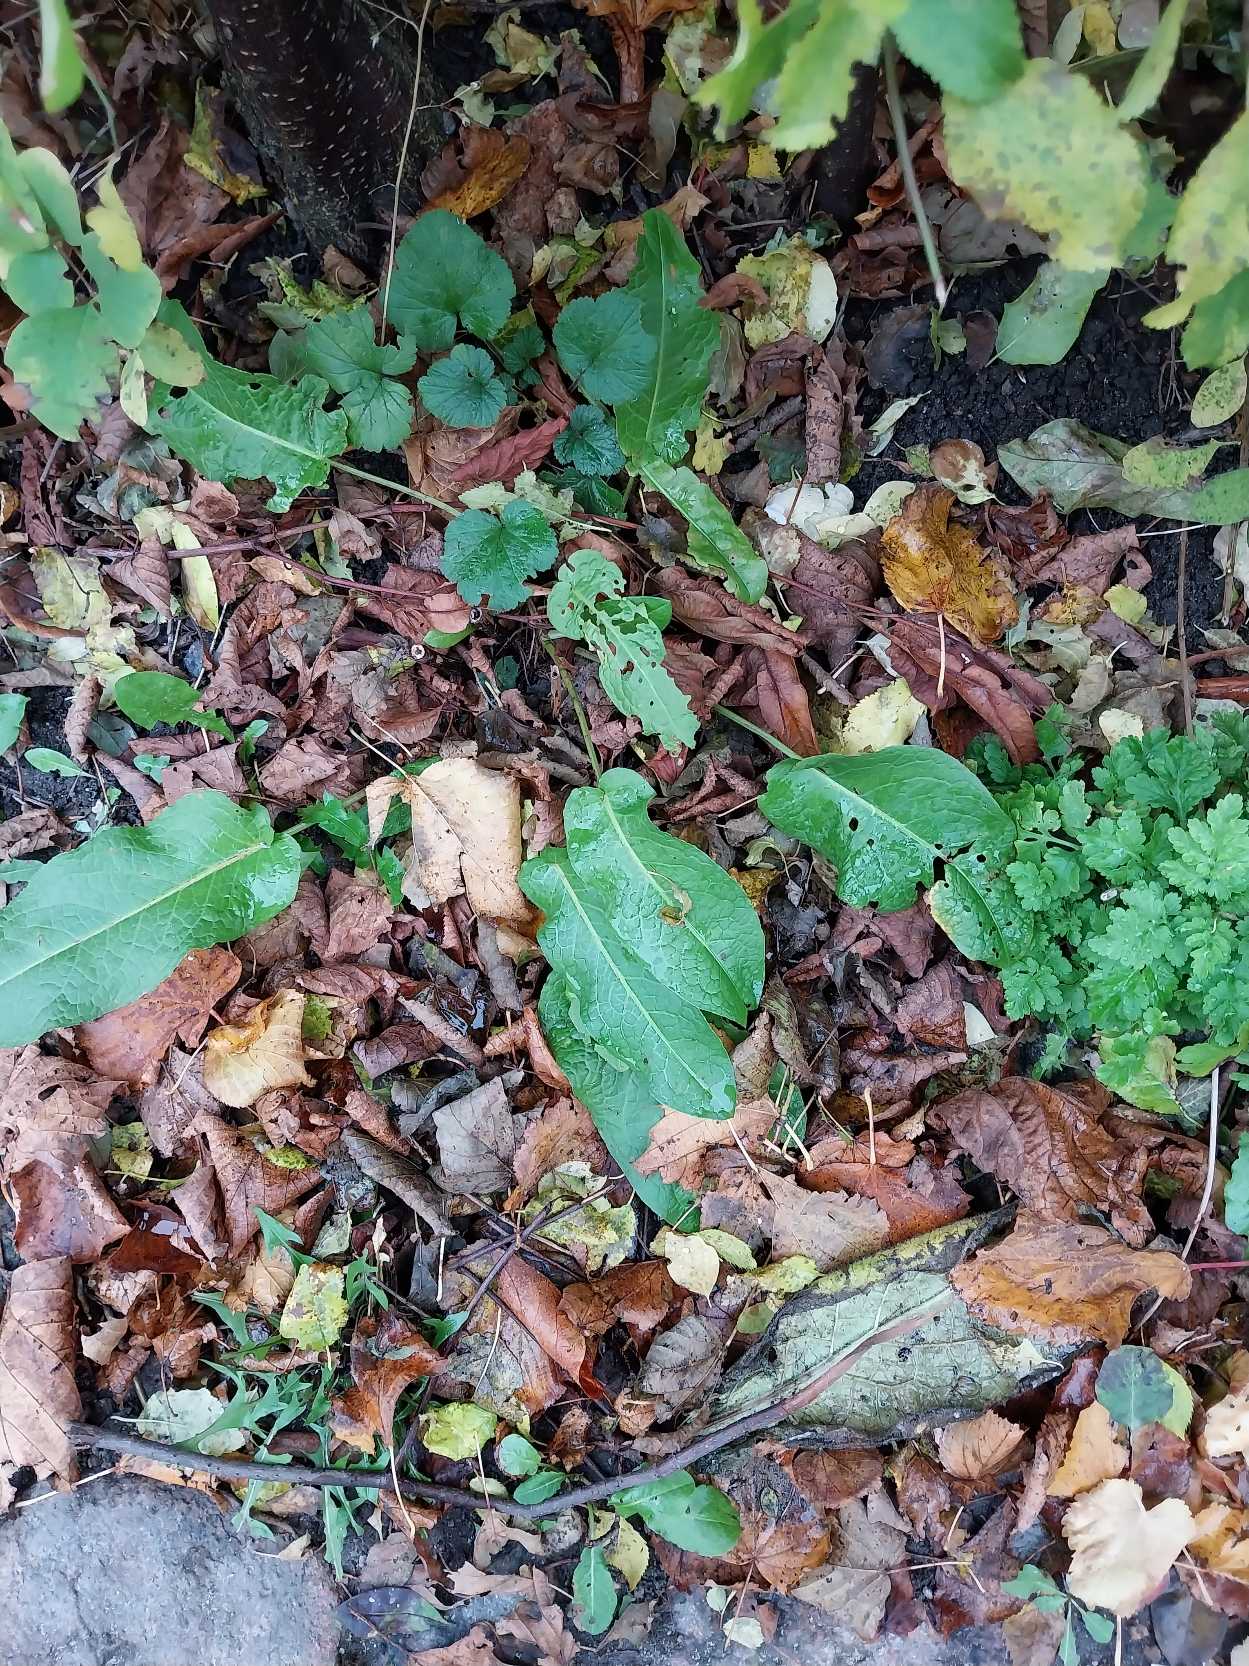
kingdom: Plantae
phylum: Tracheophyta
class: Magnoliopsida
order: Caryophyllales
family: Polygonaceae
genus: Rumex
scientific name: Rumex obtusifolius
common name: Butbladet skræppe
